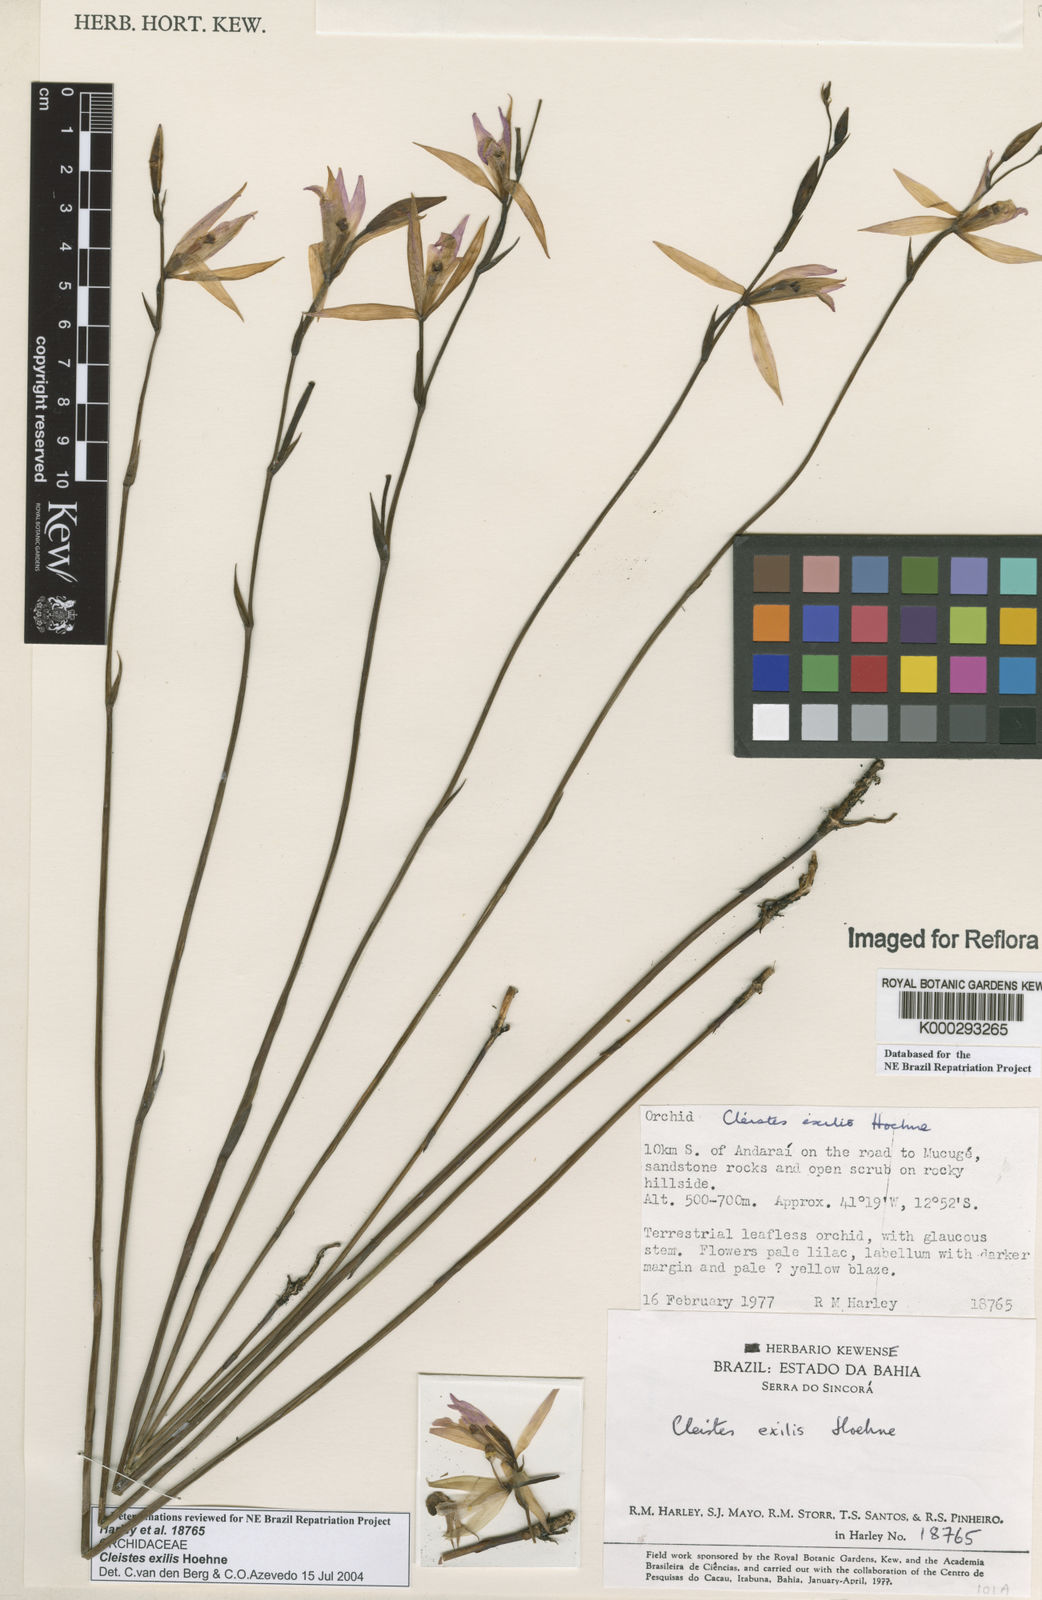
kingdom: Plantae
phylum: Tracheophyta
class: Liliopsida
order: Asparagales
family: Orchidaceae
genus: Cleistes
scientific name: Cleistes exilis
